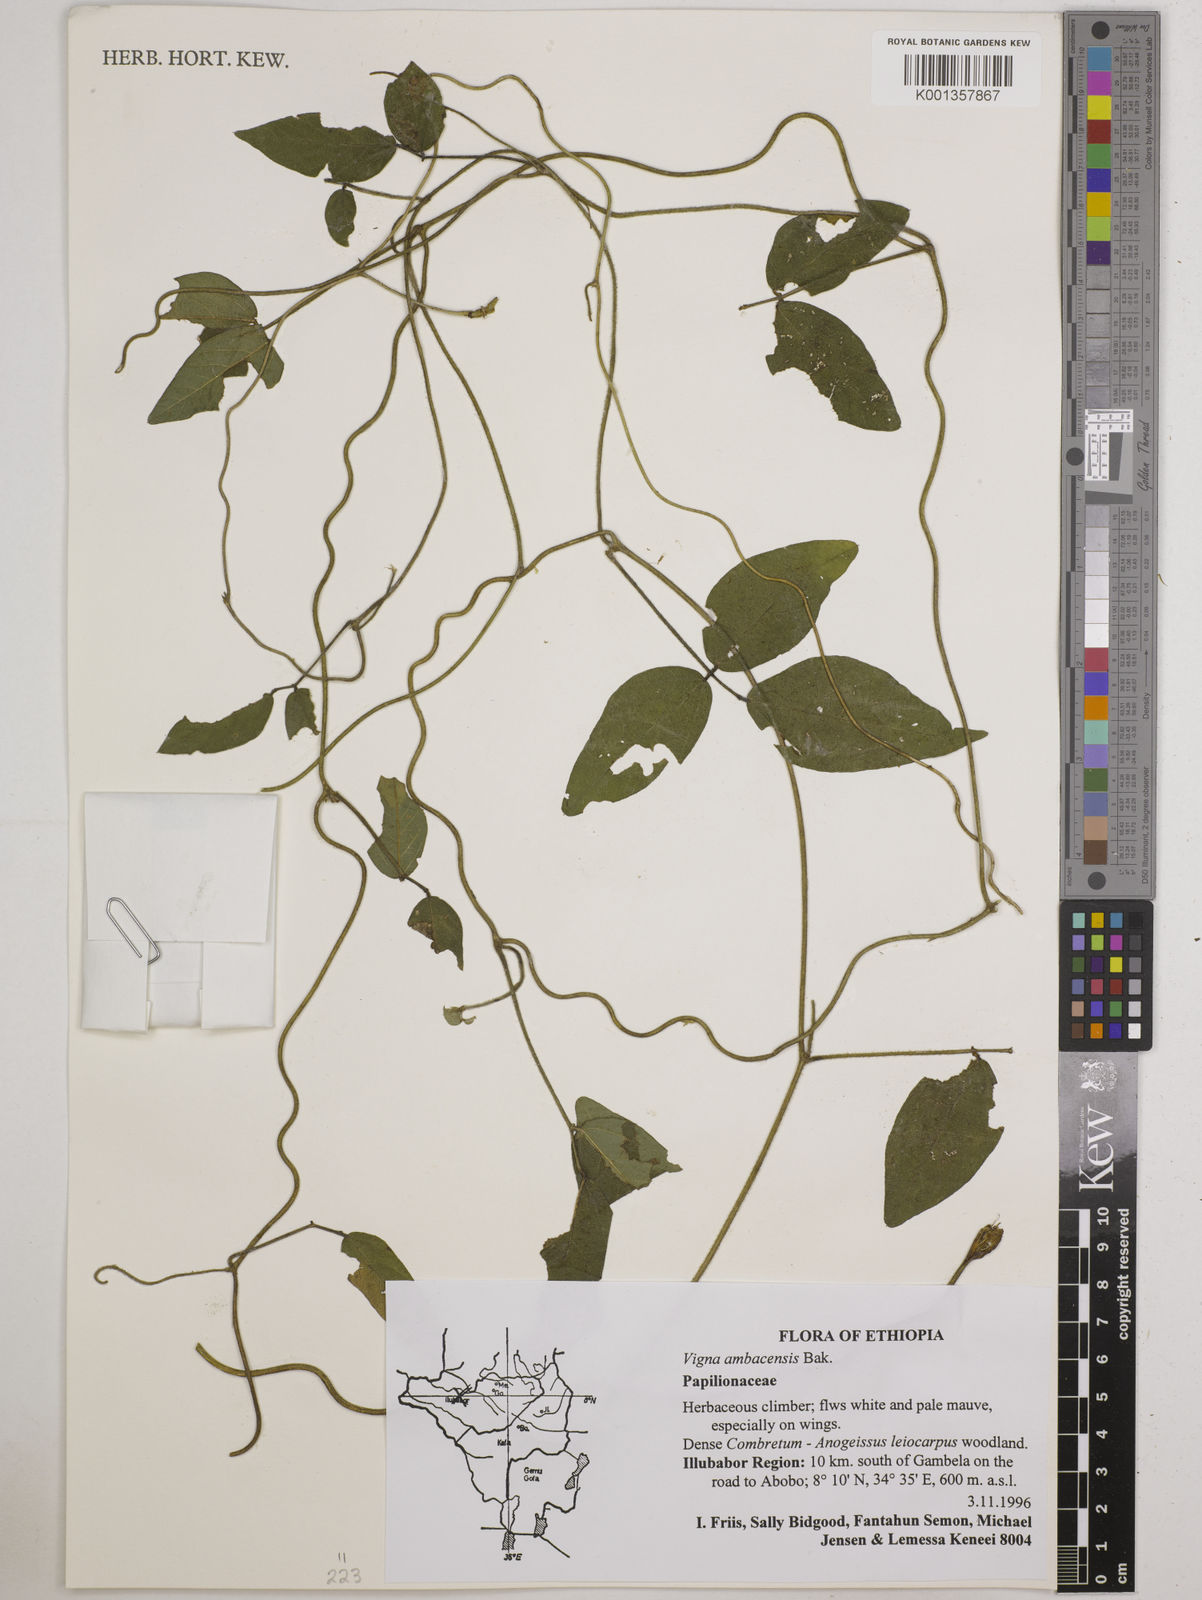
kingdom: Plantae
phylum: Tracheophyta
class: Magnoliopsida
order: Fabales
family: Fabaceae
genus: Vigna
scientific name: Vigna ambacensis
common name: Tsarkiyan zomo
